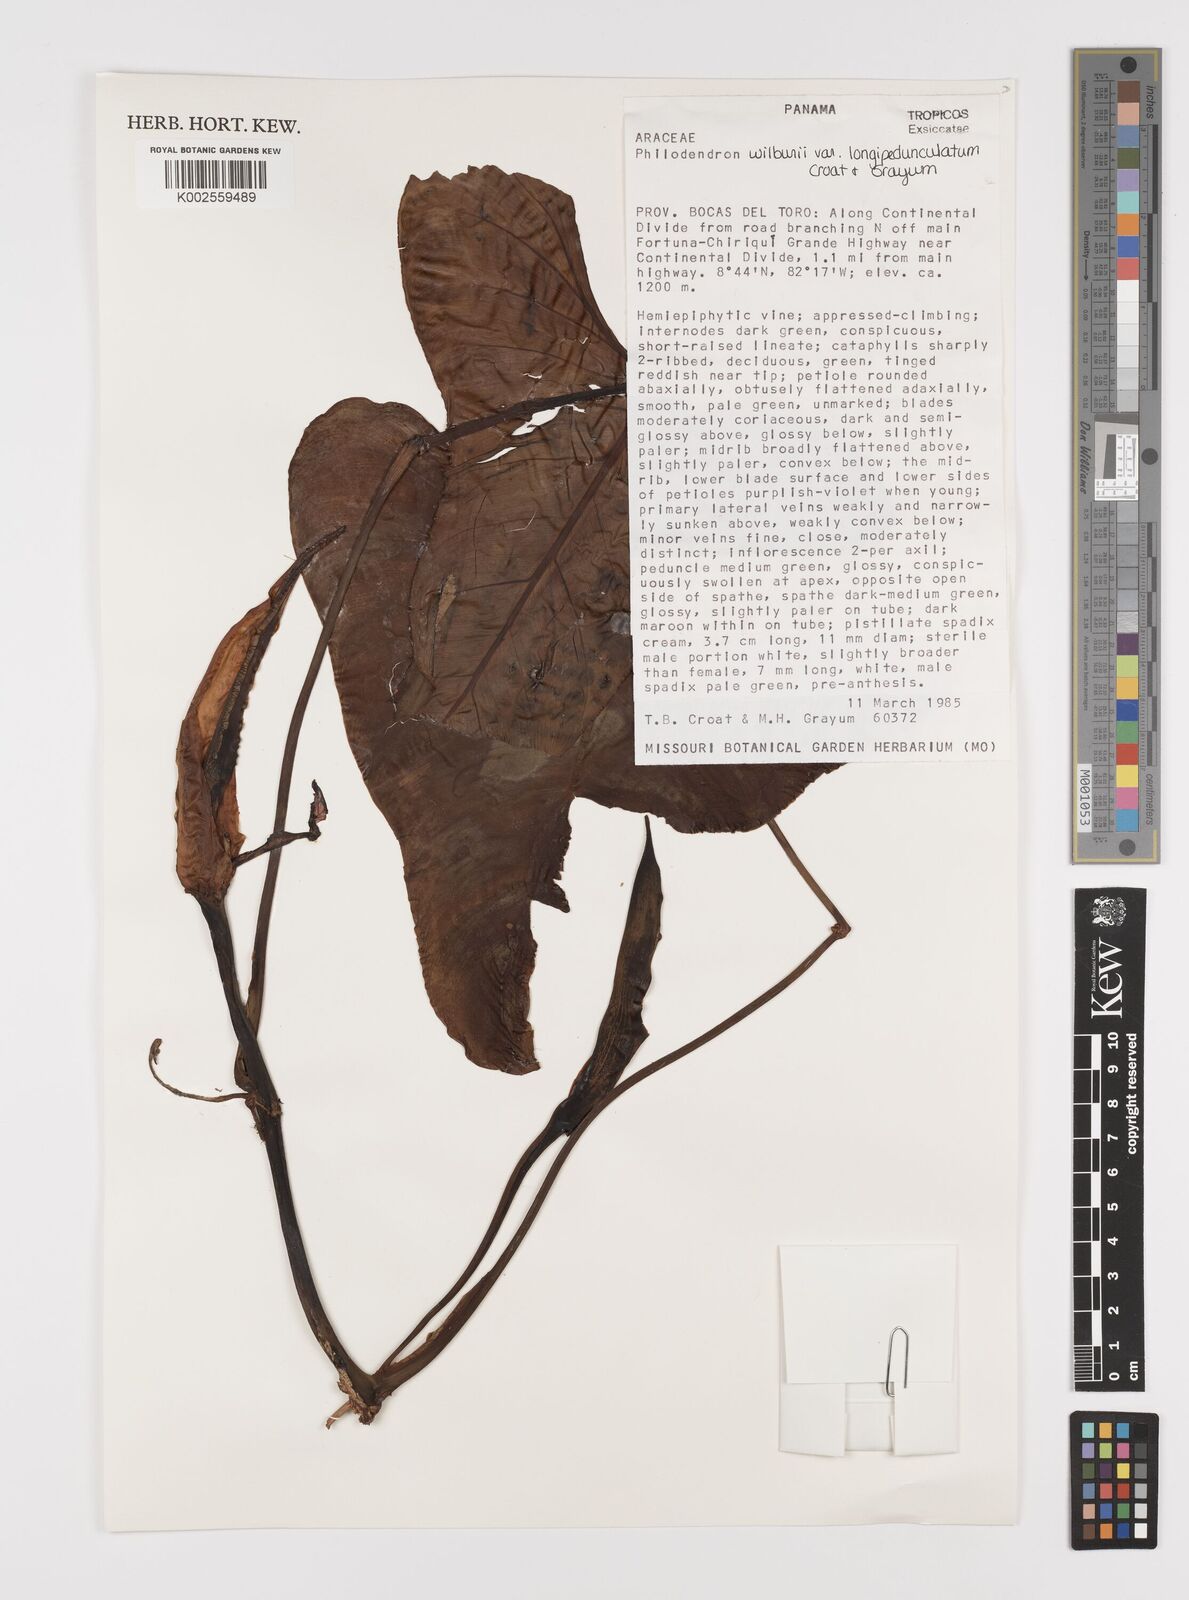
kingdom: Plantae
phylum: Tracheophyta
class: Liliopsida
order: Alismatales
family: Araceae
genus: Philodendron
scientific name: Philodendron wilburii
